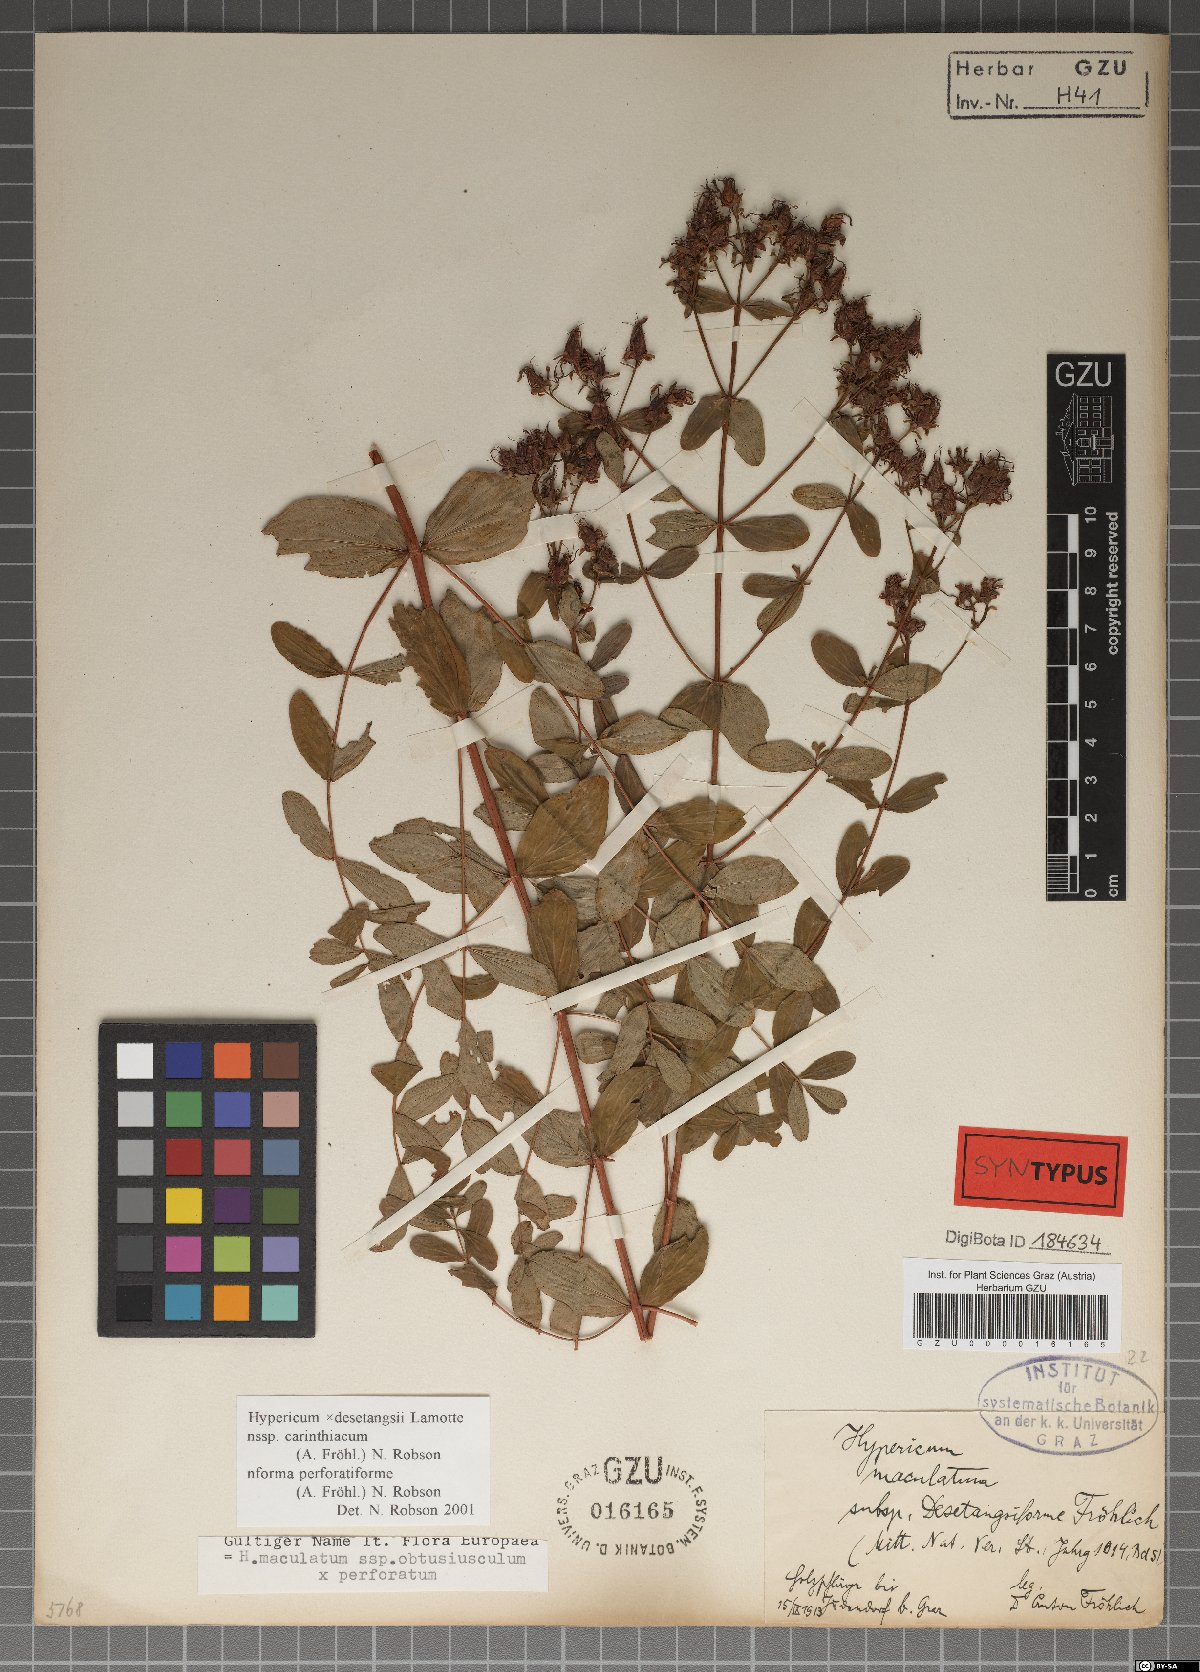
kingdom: Plantae
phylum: Tracheophyta
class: Magnoliopsida
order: Malpighiales
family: Hypericaceae
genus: Hypericum
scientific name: Hypericum carinthiacum
